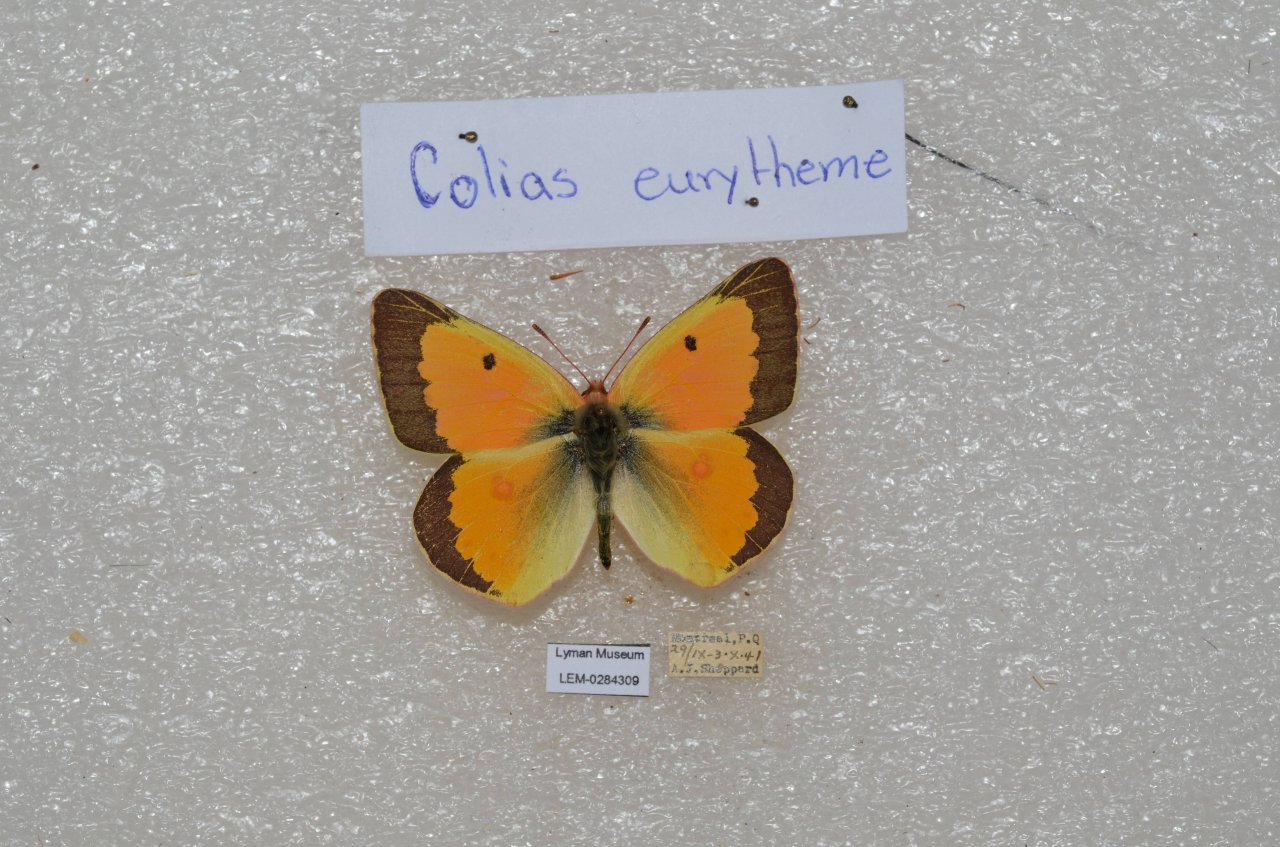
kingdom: Animalia
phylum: Arthropoda
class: Insecta
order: Lepidoptera
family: Pieridae
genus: Colias
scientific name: Colias eurytheme
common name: Orange Sulphur
